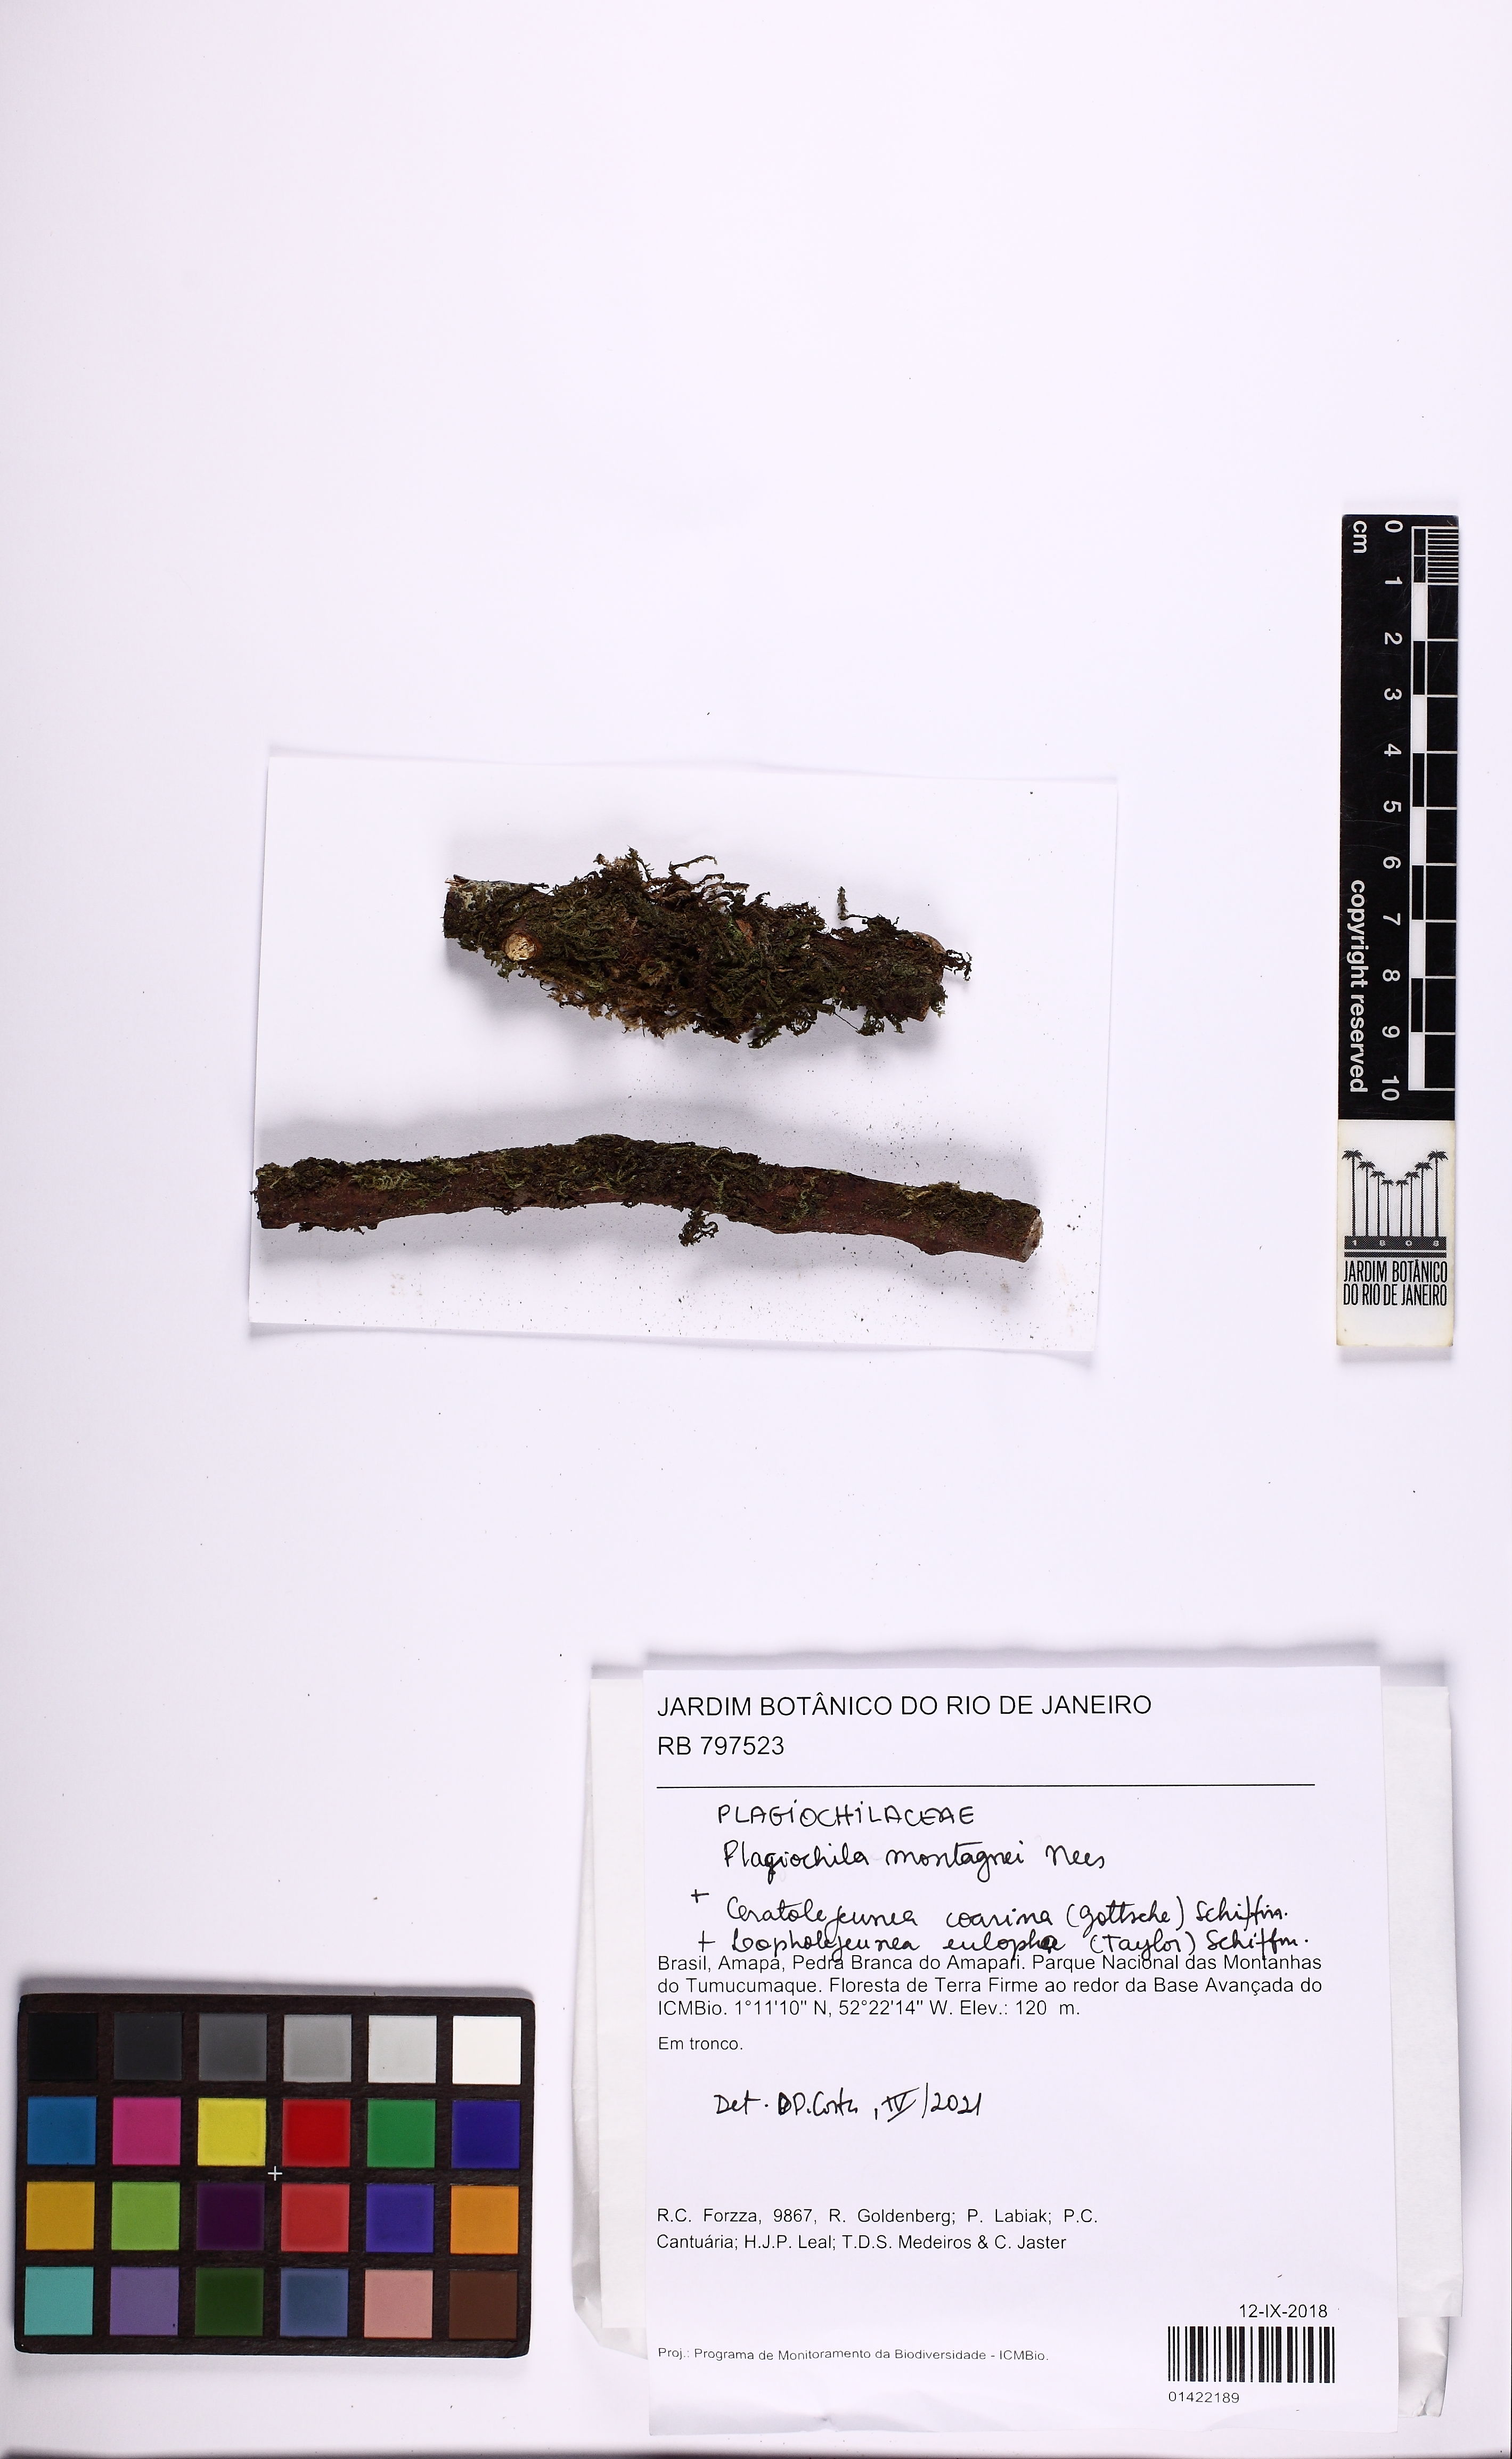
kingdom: Plantae
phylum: Marchantiophyta
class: Jungermanniopsida
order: Jungermanniales
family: Plagiochilaceae
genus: Plagiochila
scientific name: Plagiochila montagnei
